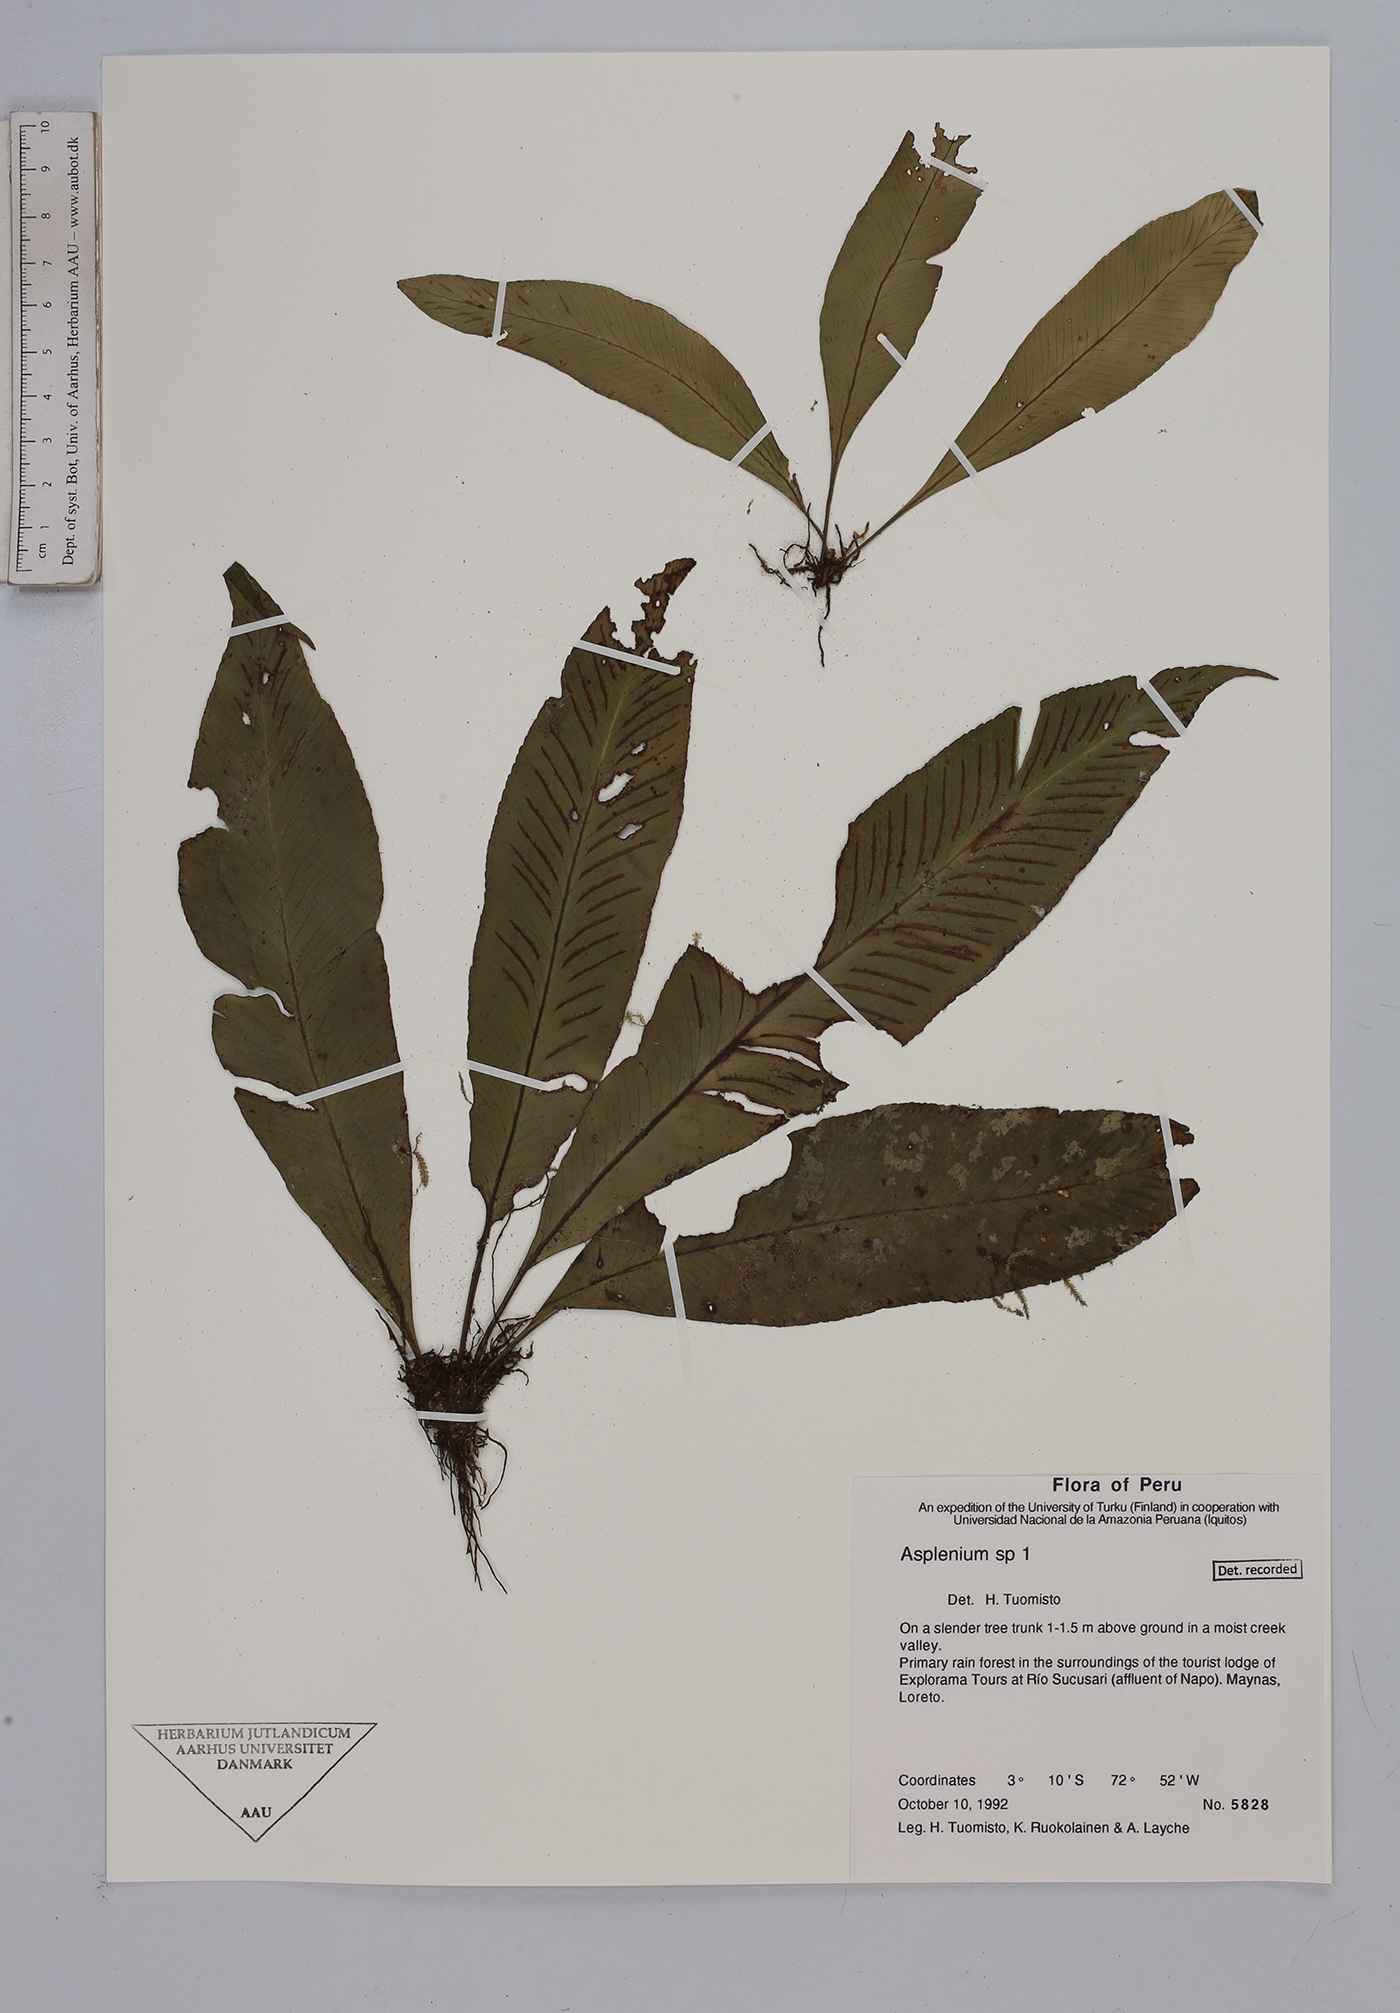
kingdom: Plantae
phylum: Tracheophyta
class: Polypodiopsida
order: Polypodiales
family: Aspleniaceae
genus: Asplenium
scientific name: Asplenium
